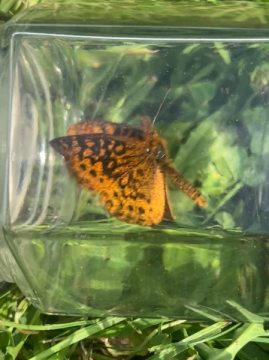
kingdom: Animalia
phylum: Arthropoda
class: Insecta
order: Lepidoptera
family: Nymphalidae
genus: Clossiana
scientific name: Clossiana toddi
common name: Meadow Fritillary
